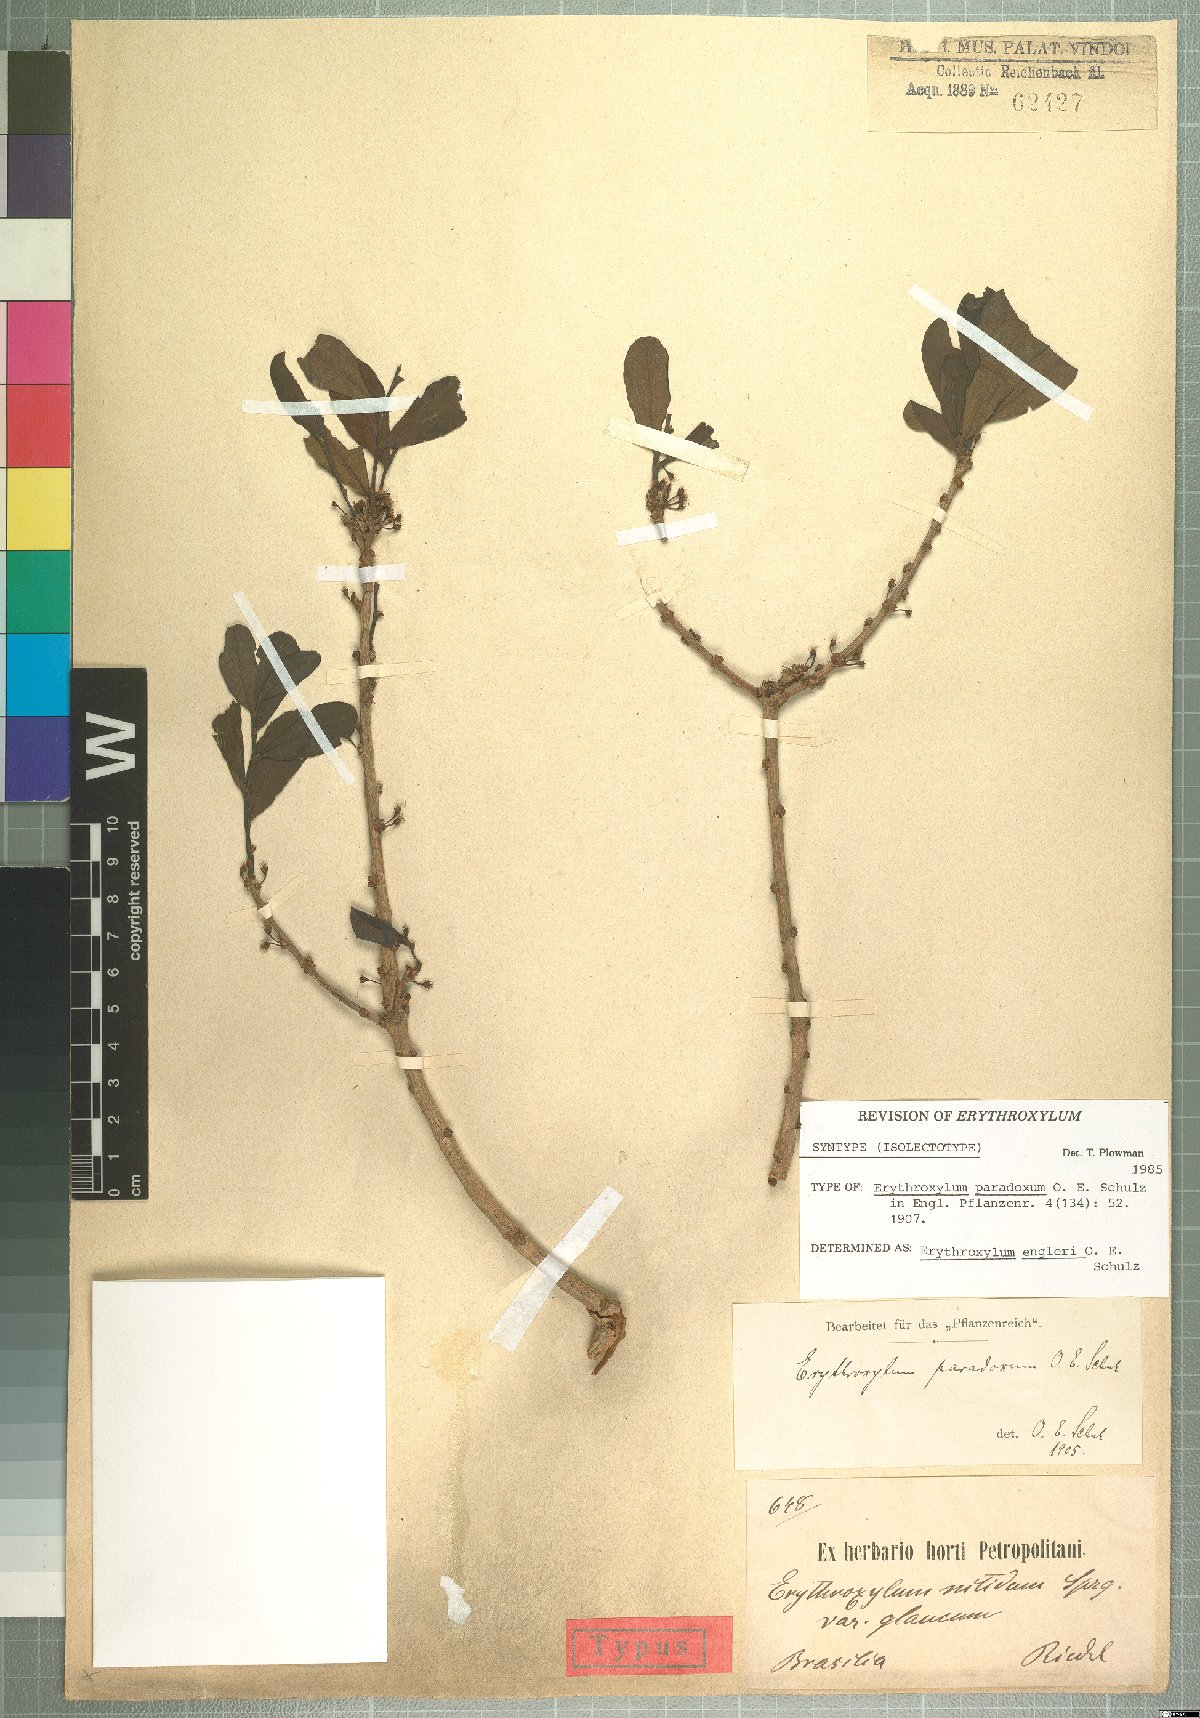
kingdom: Plantae
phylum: Tracheophyta
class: Magnoliopsida
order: Malpighiales
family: Erythroxylaceae
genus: Erythroxylum
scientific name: Erythroxylum engleri
